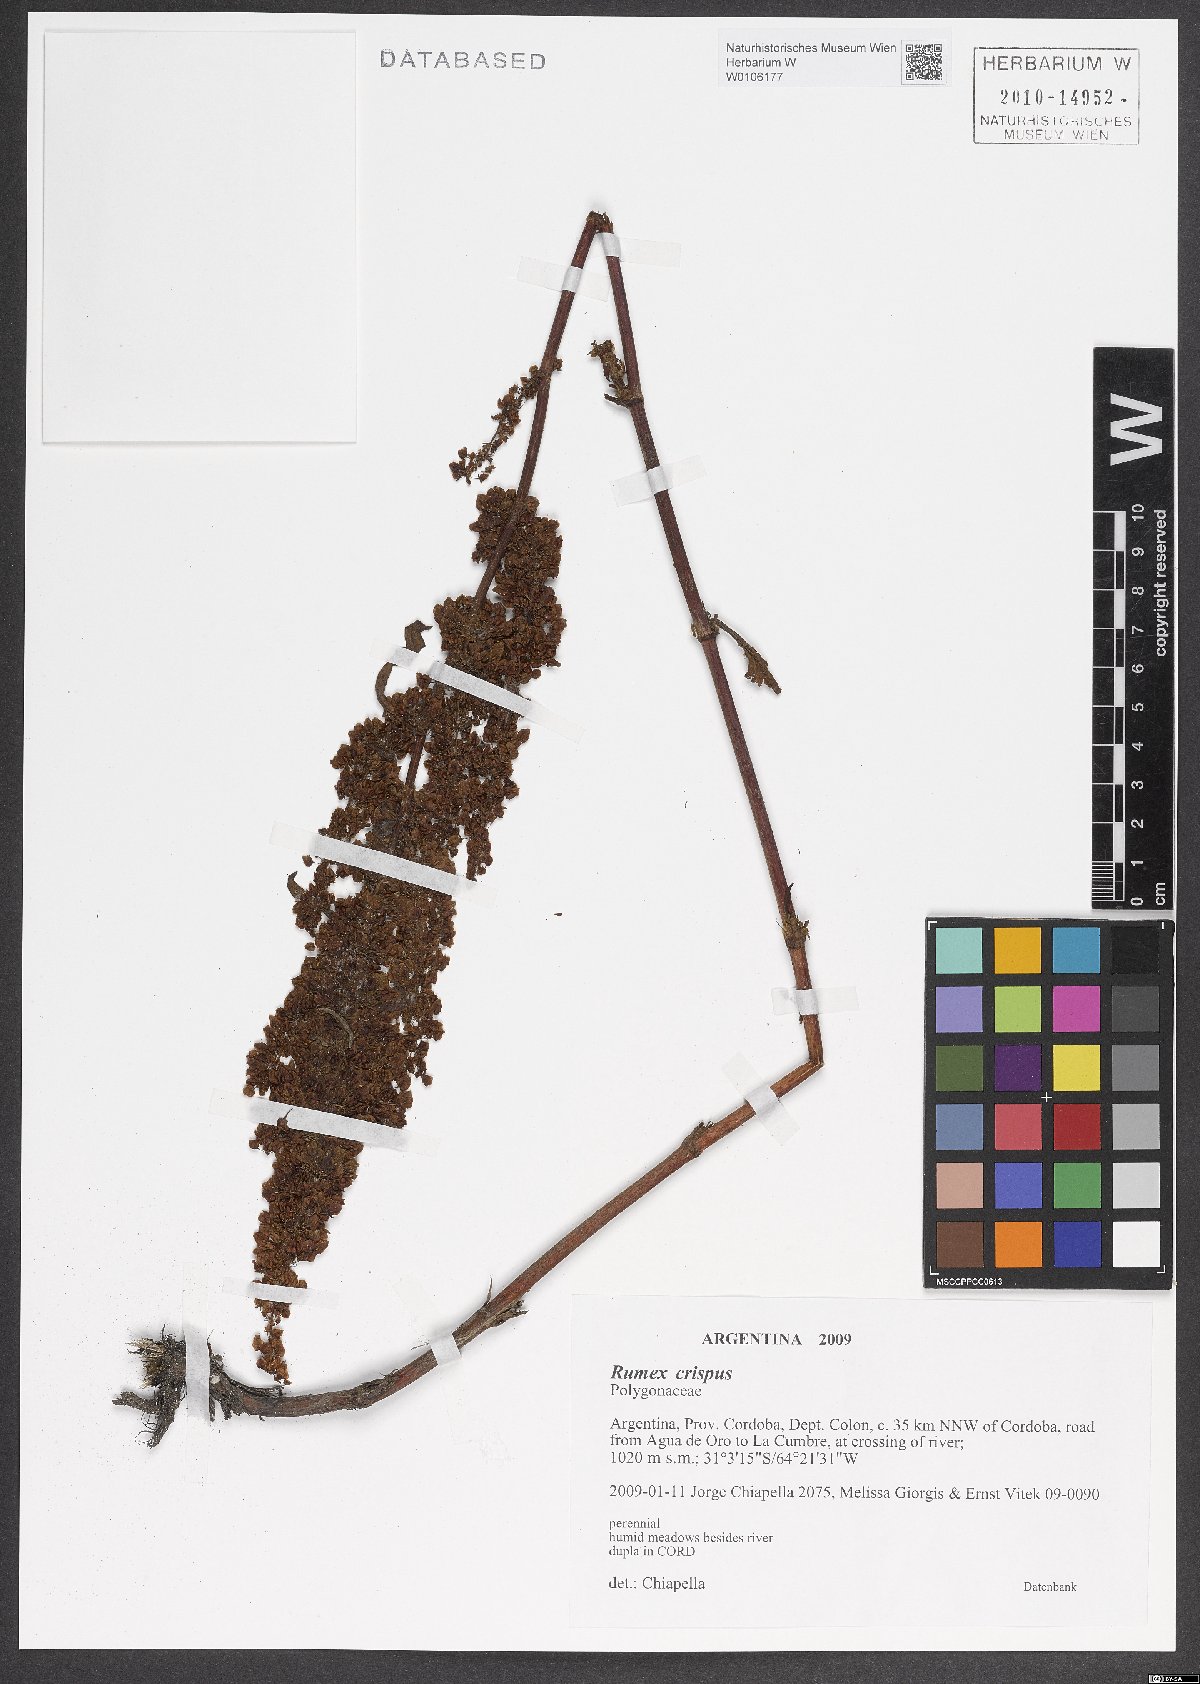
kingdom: Plantae
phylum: Tracheophyta
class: Magnoliopsida
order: Caryophyllales
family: Polygonaceae
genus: Rumex
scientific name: Rumex crispus
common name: Curled dock
